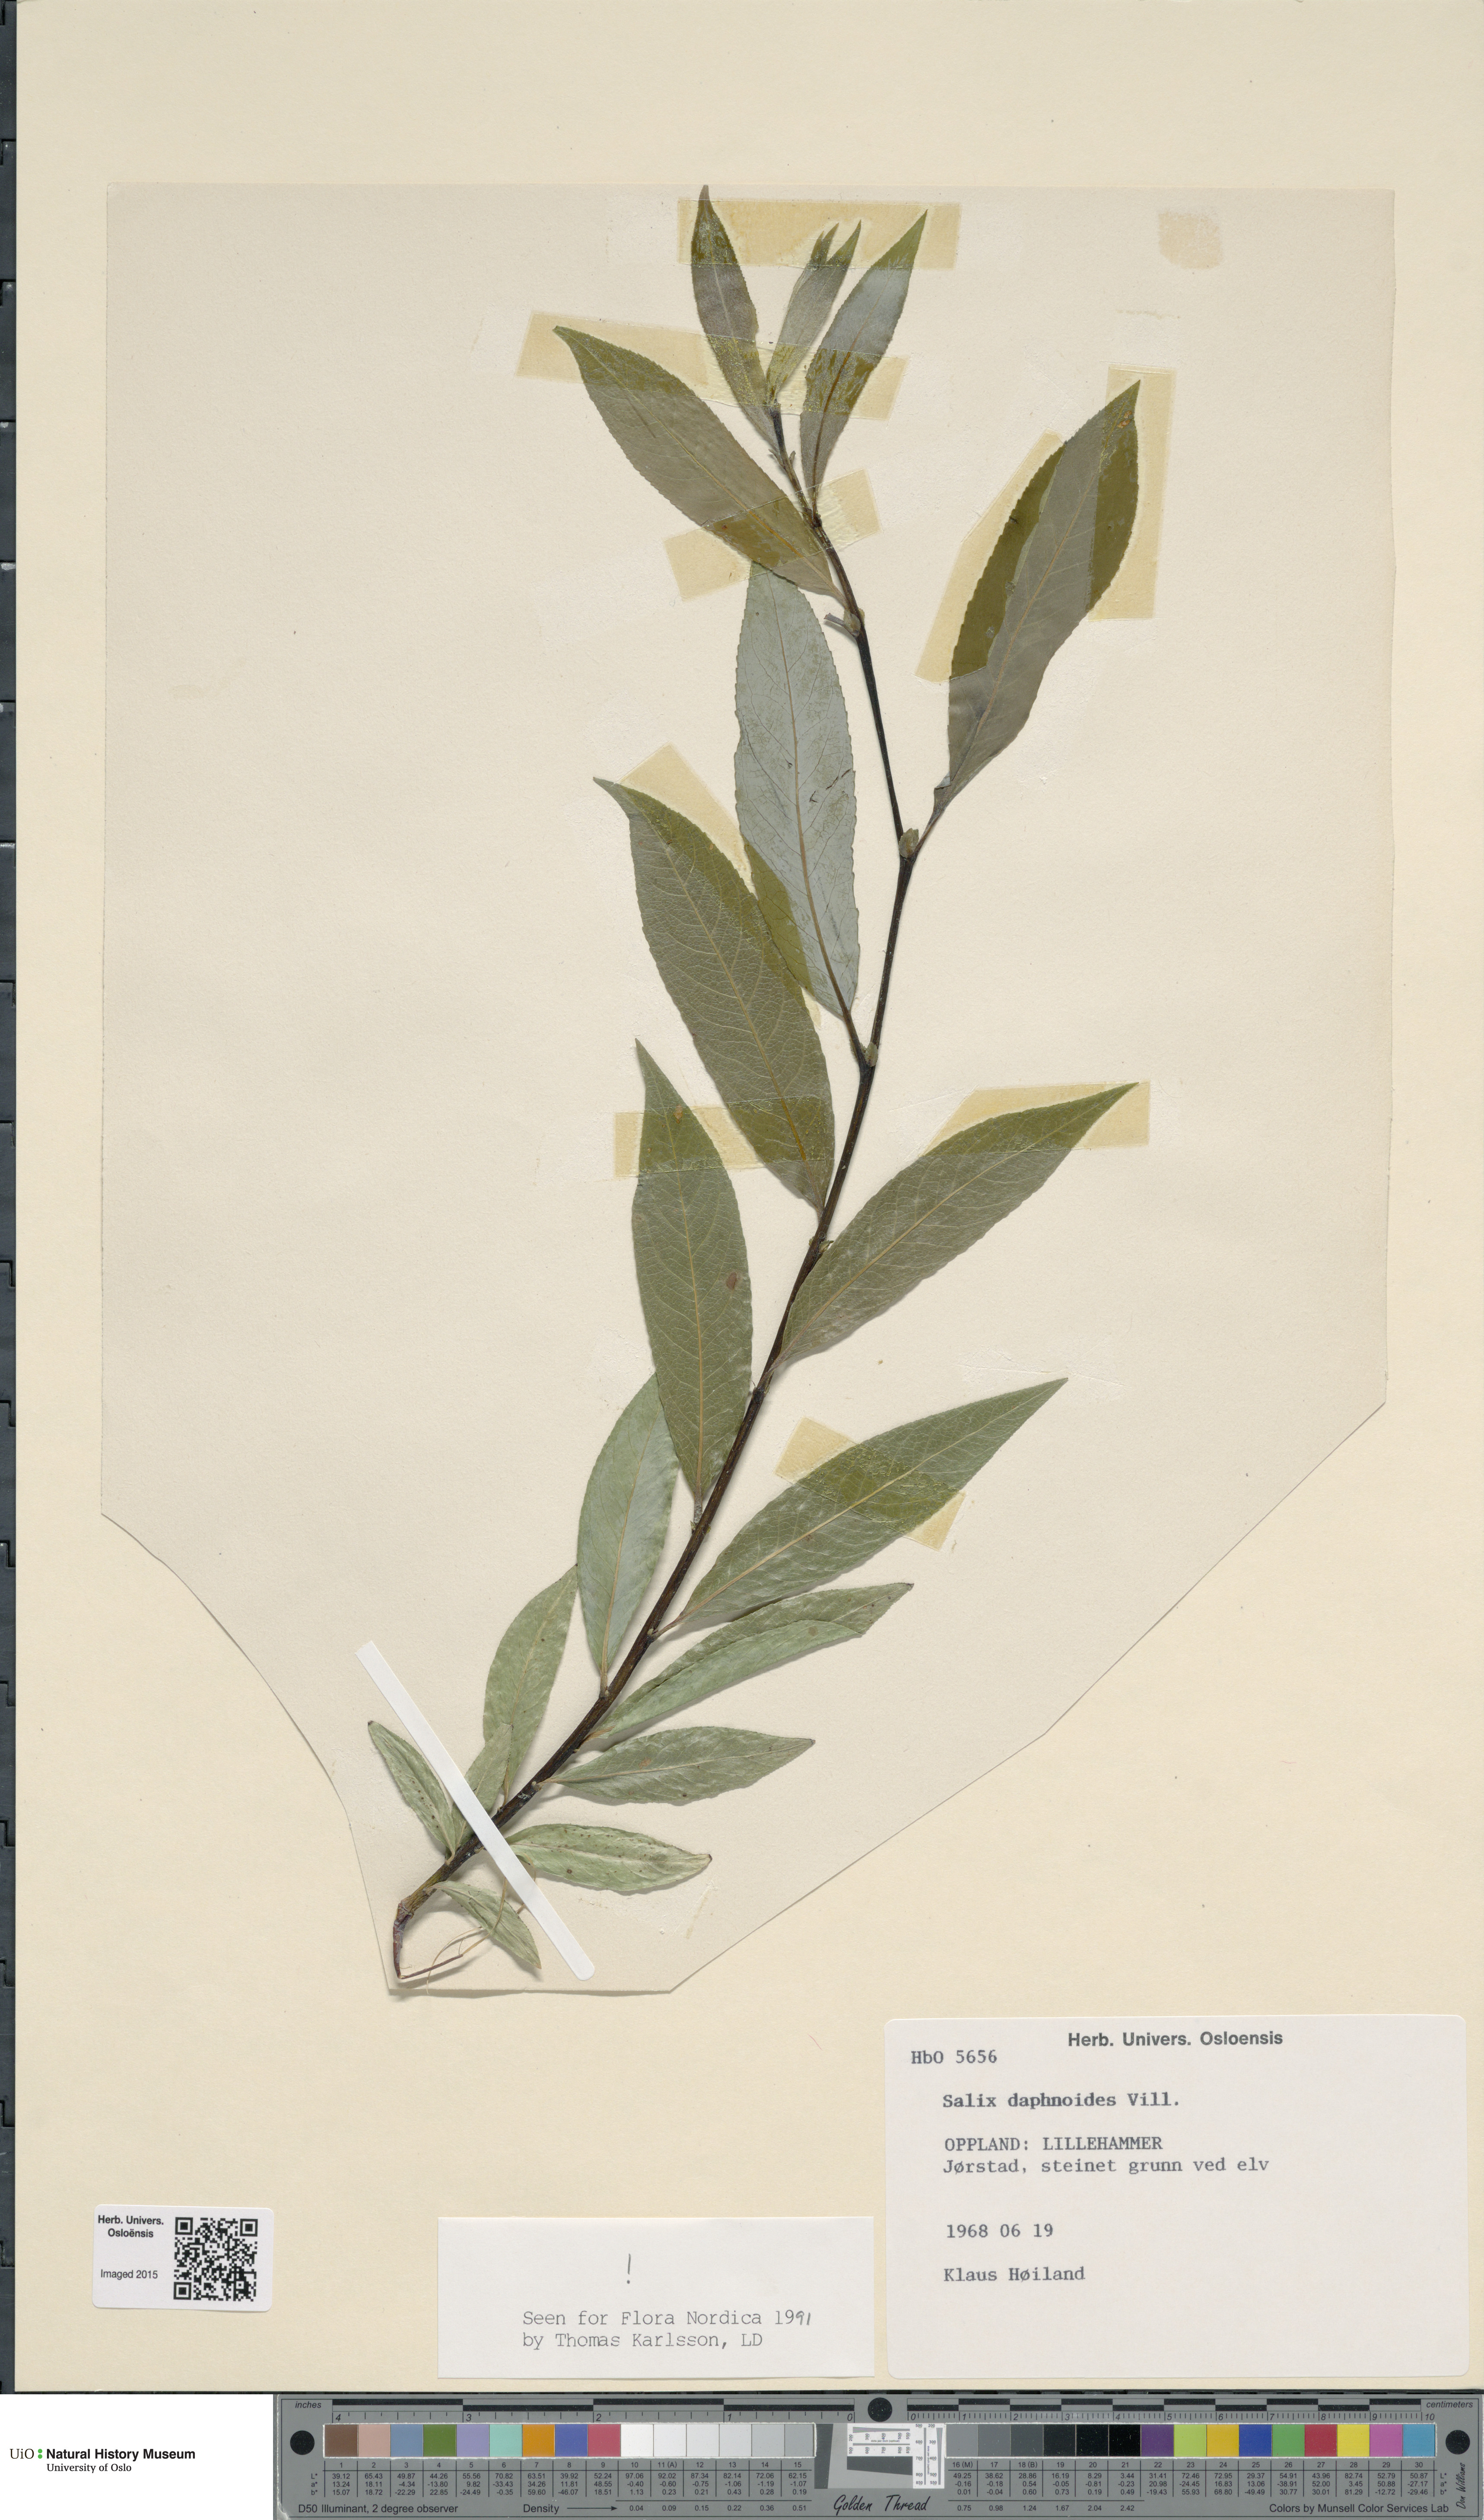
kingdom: Plantae
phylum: Tracheophyta
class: Magnoliopsida
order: Malpighiales
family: Salicaceae
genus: Salix
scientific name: Salix daphnoides
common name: European violet-willow
